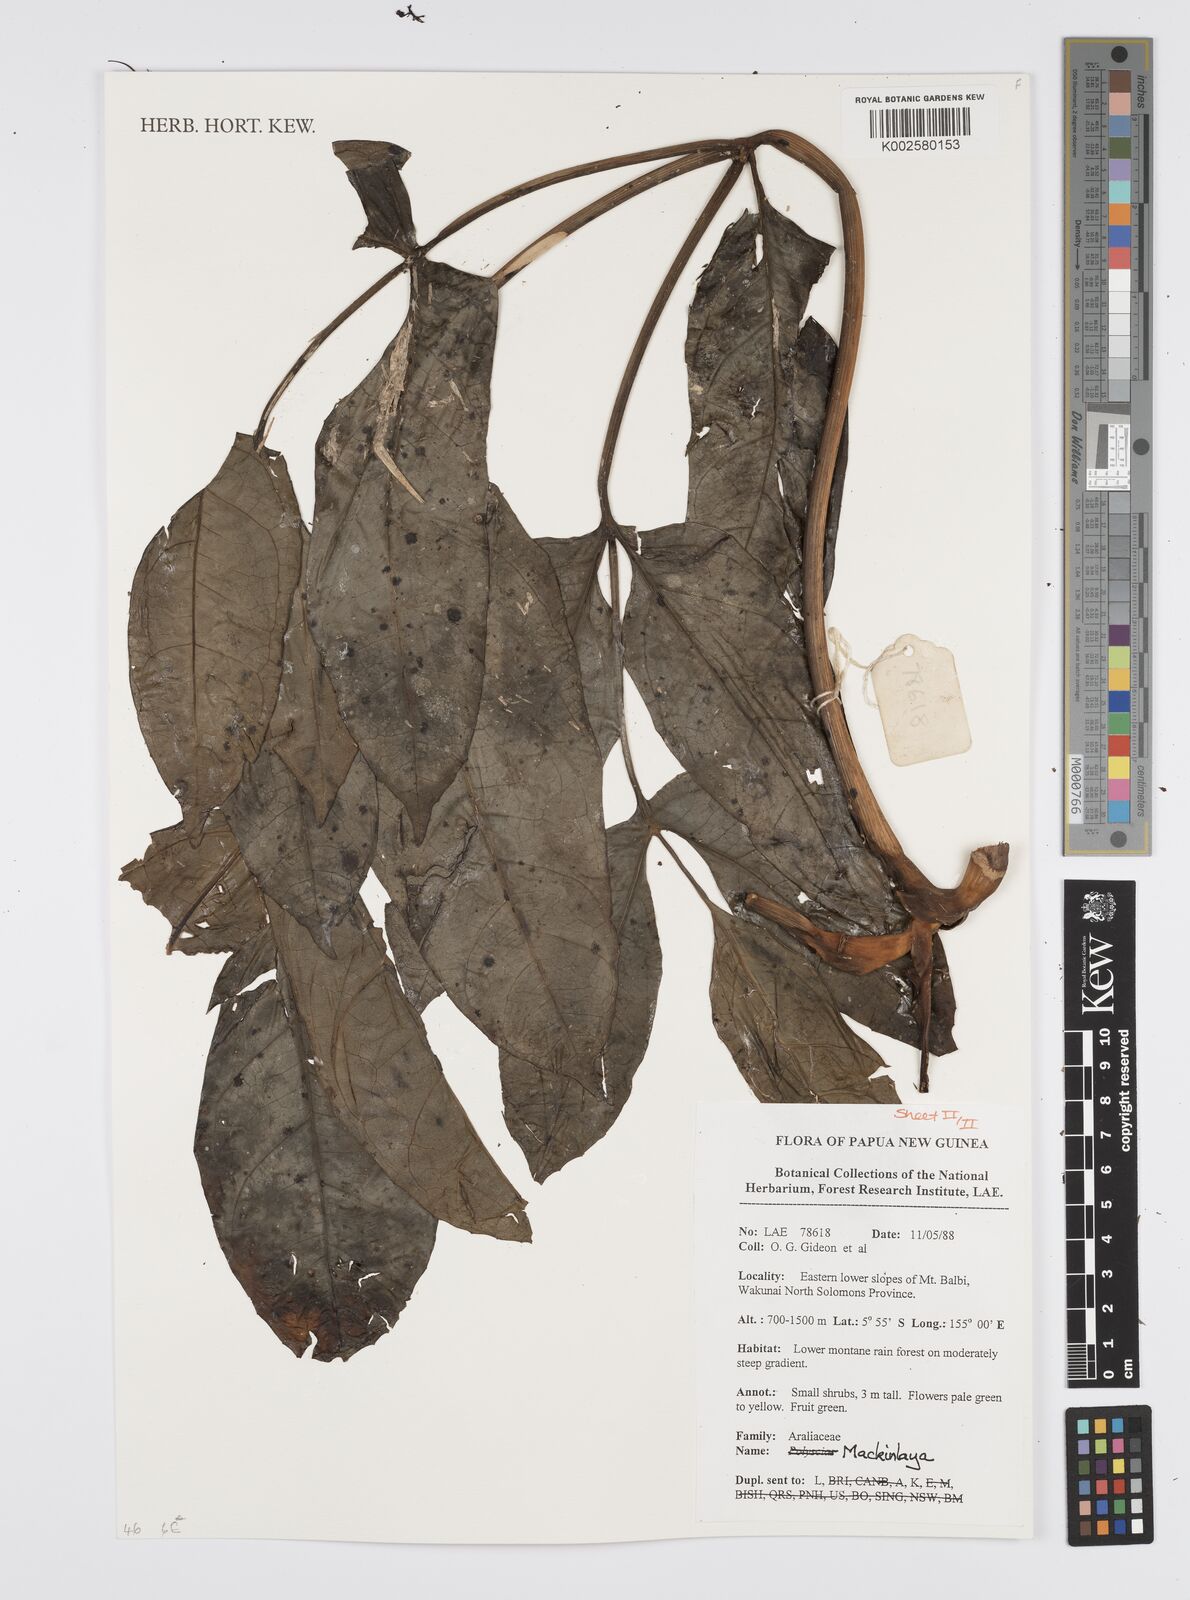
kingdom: Plantae
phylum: Tracheophyta
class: Magnoliopsida
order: Apiales
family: Apiaceae
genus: Mackinlaya
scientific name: Mackinlaya
